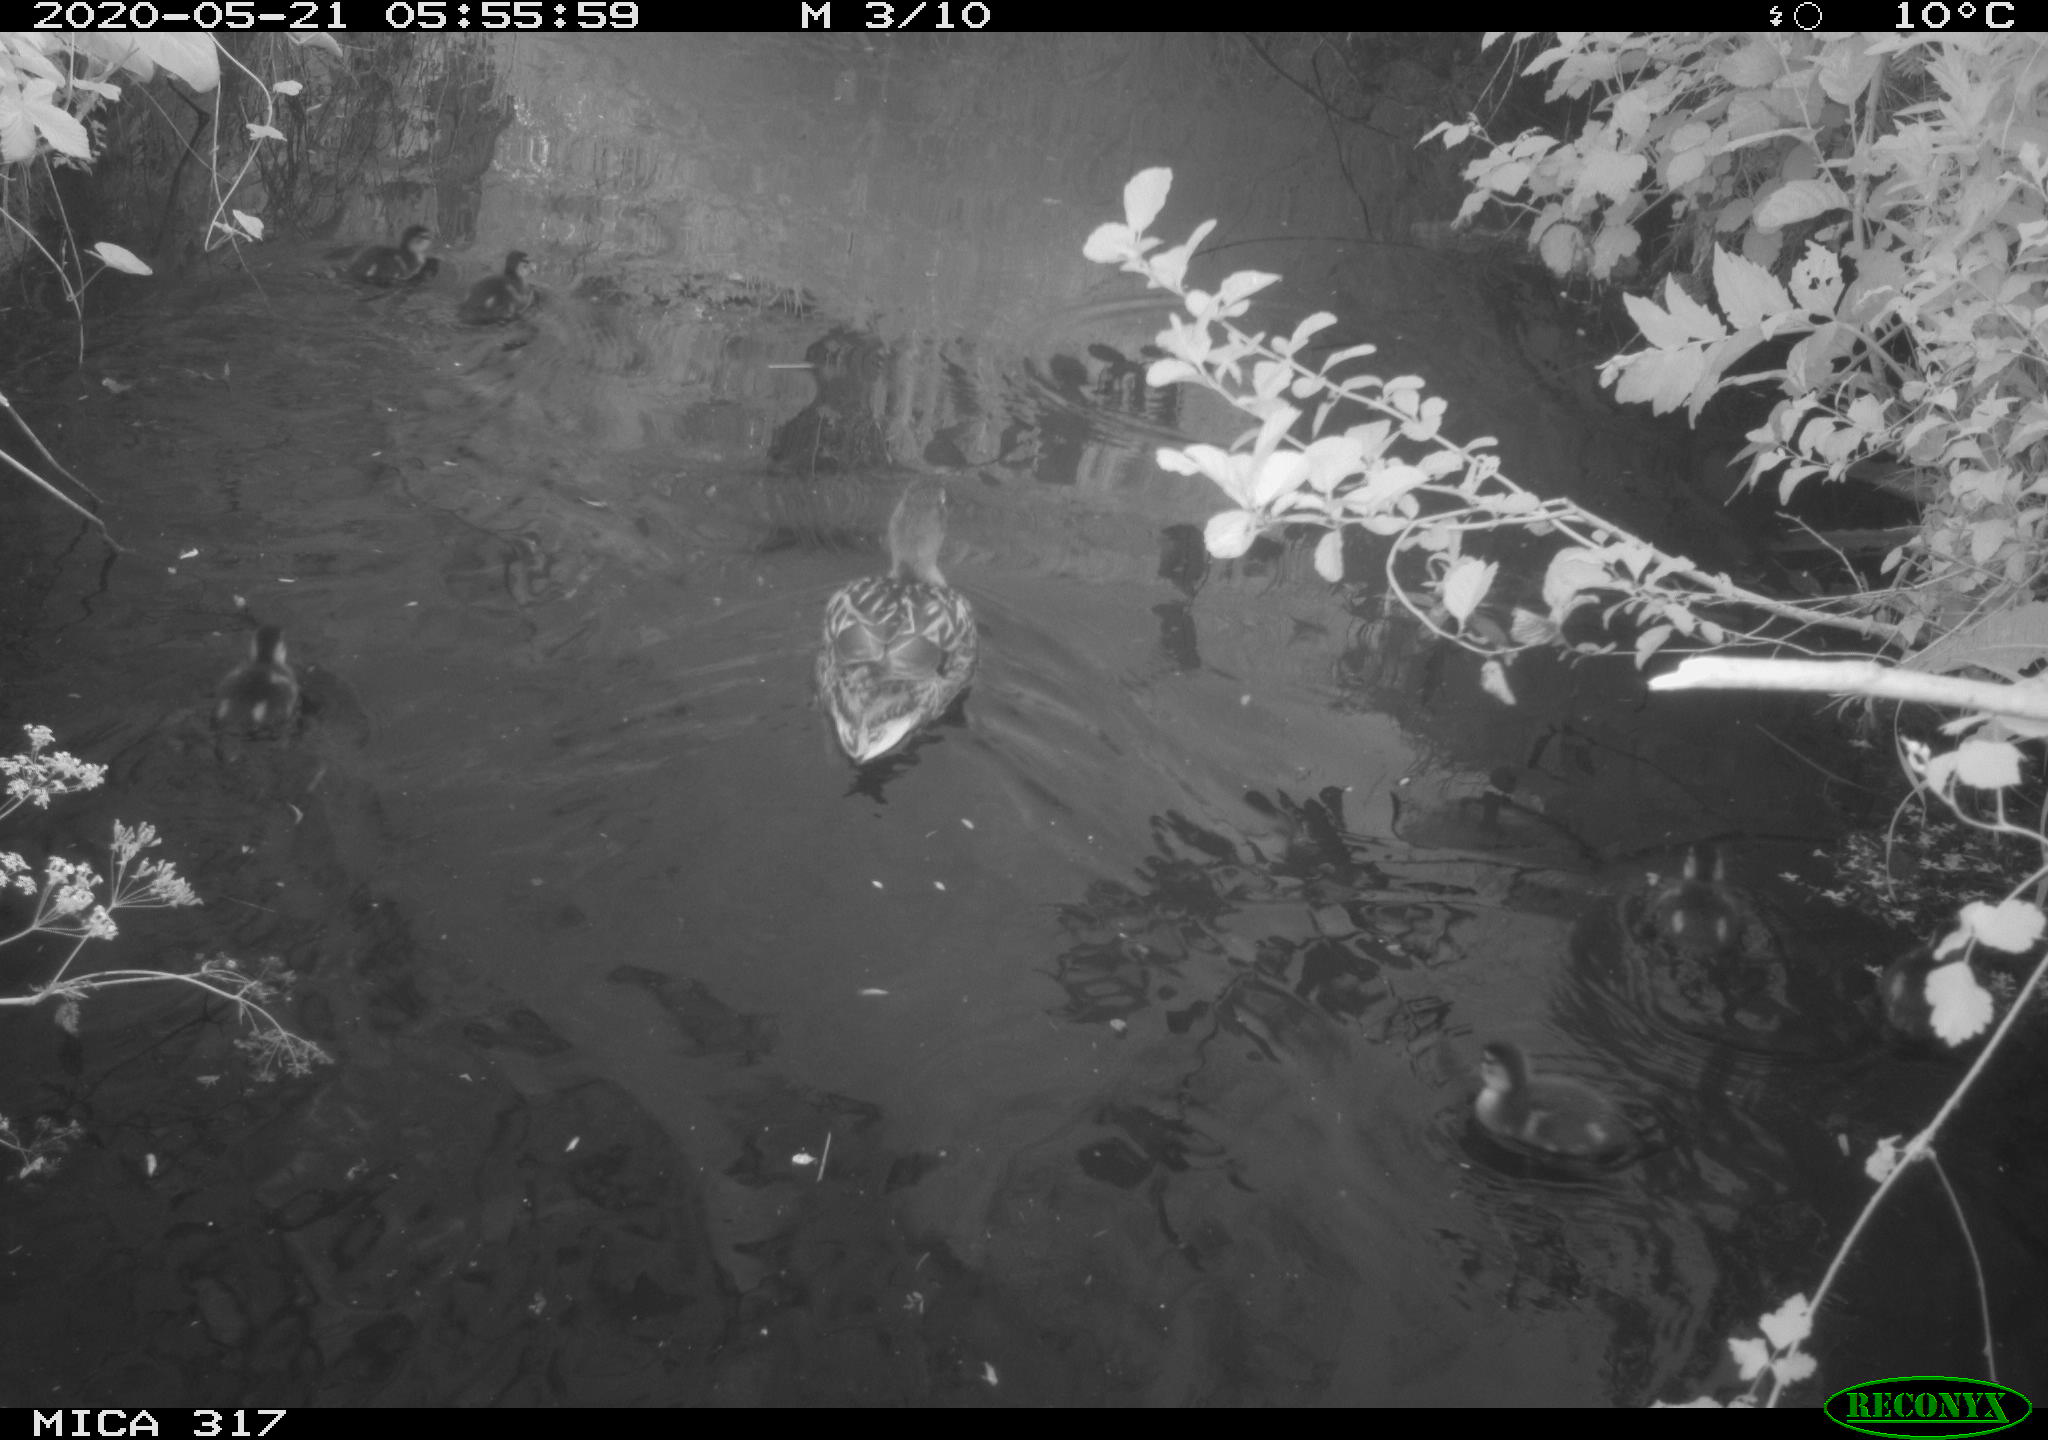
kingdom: Animalia
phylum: Chordata
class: Aves
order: Anseriformes
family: Anatidae
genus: Anas
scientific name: Anas platyrhynchos
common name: Mallard
